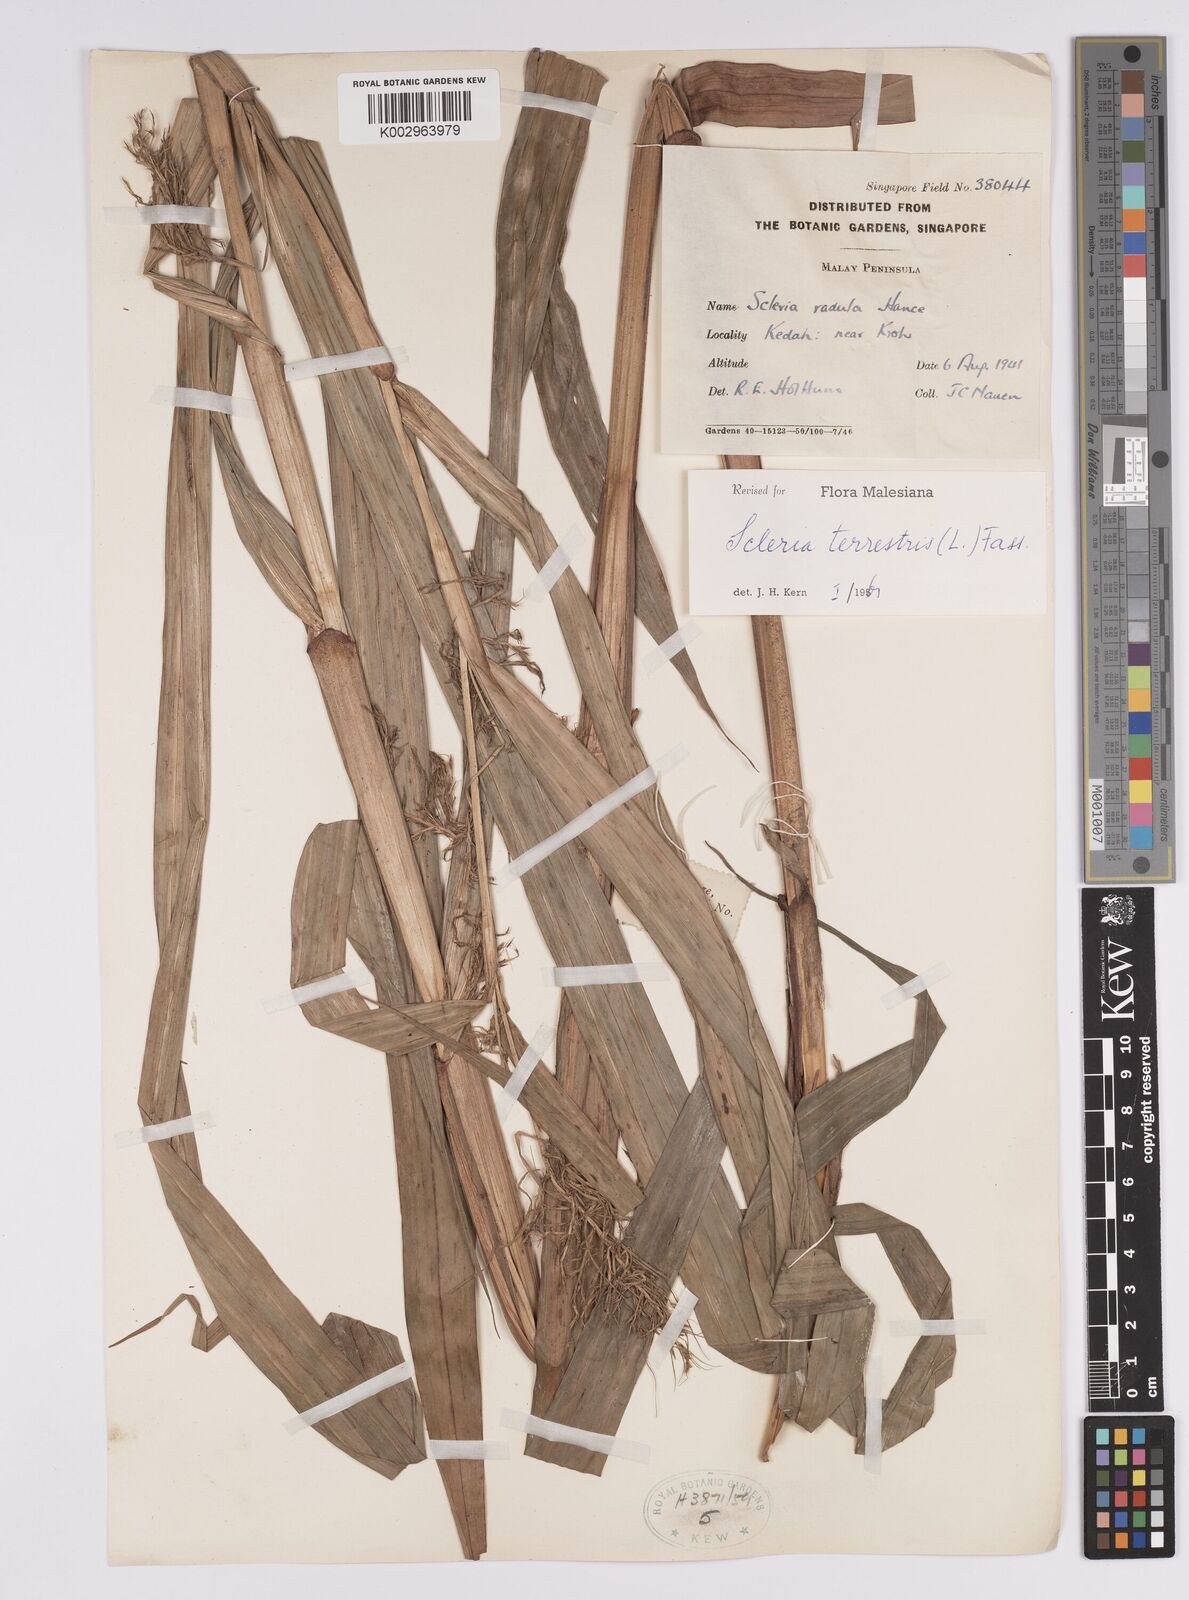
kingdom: Plantae
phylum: Tracheophyta
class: Liliopsida
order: Poales
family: Cyperaceae
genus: Scleria
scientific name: Scleria terrestris
